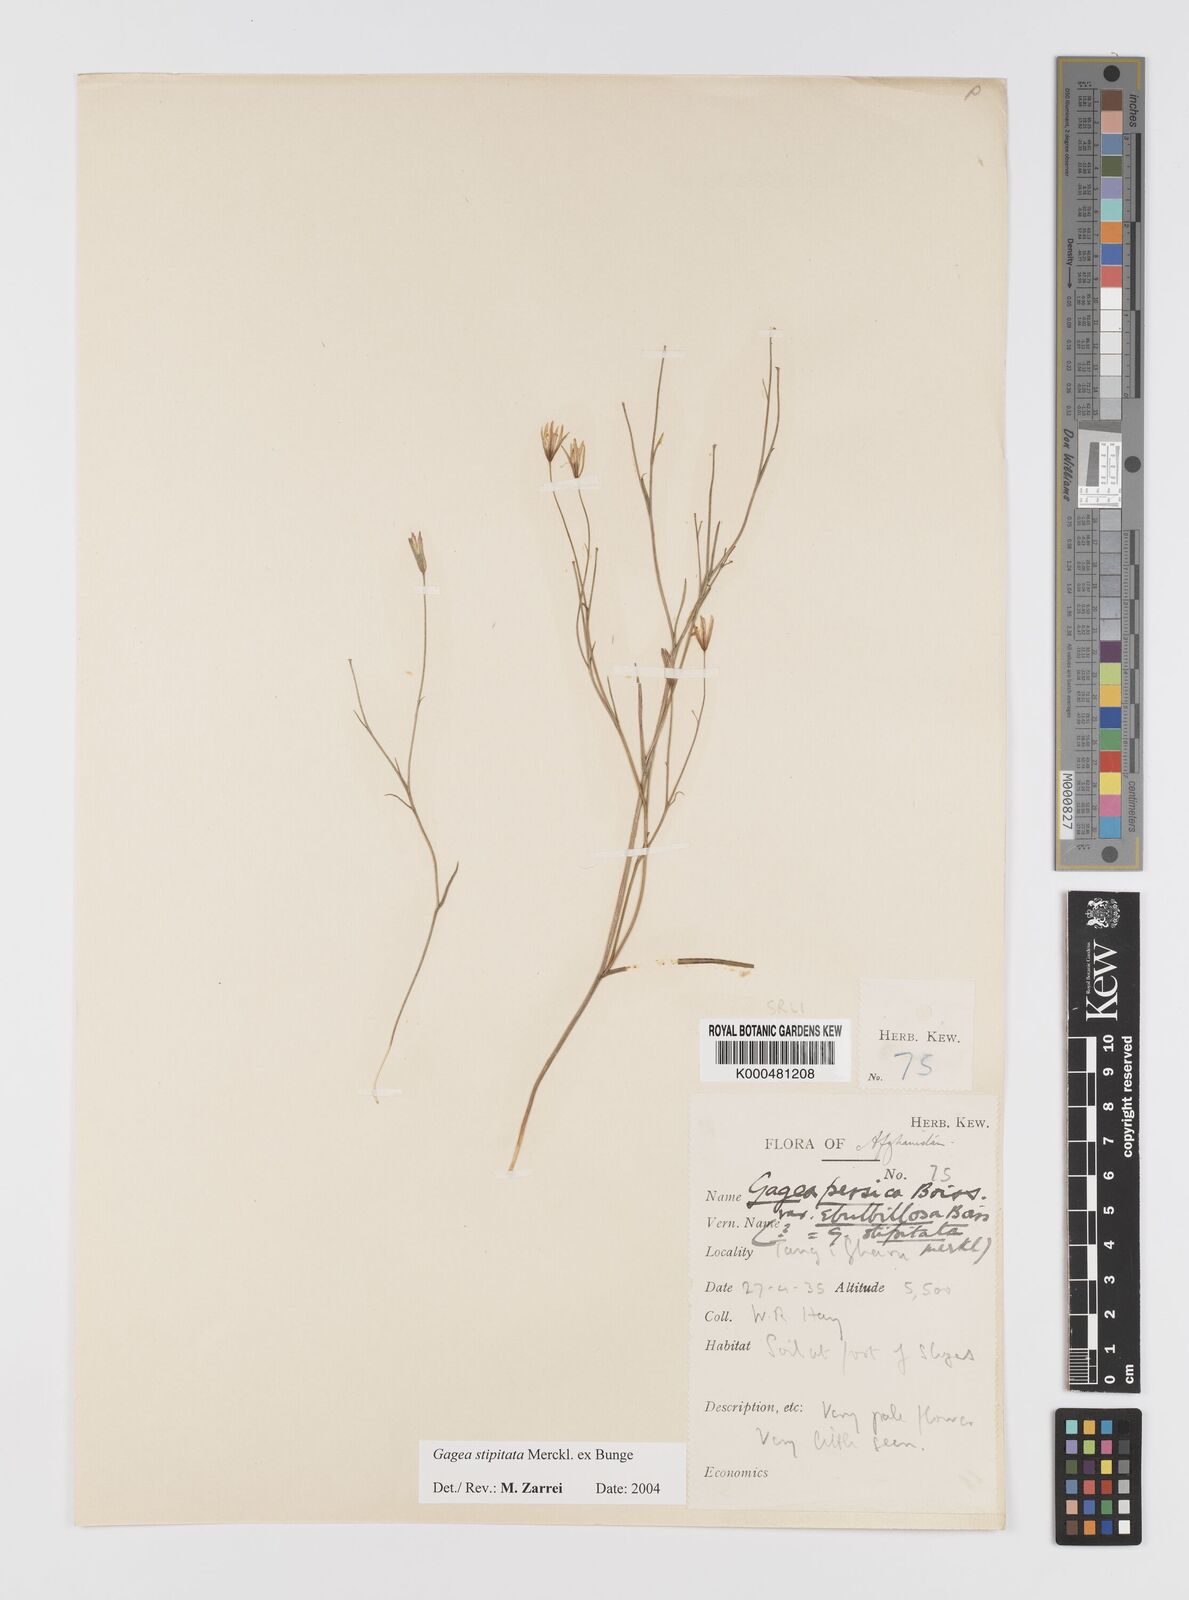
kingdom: Plantae
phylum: Tracheophyta
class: Liliopsida
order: Liliales
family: Liliaceae
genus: Gagea
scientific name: Gagea kunawurensis
